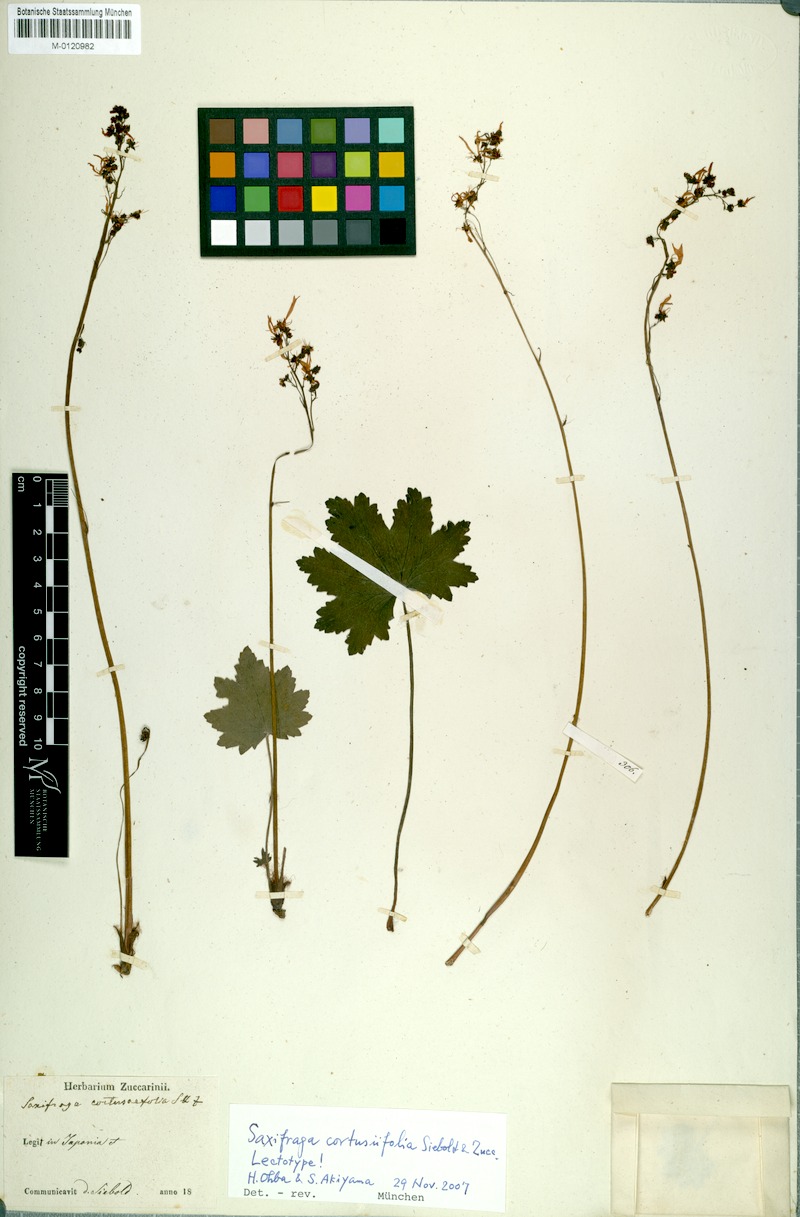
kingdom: Plantae
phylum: Tracheophyta
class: Magnoliopsida
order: Saxifragales
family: Saxifragaceae
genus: Saxifraga
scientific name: Saxifraga cortusifolia
